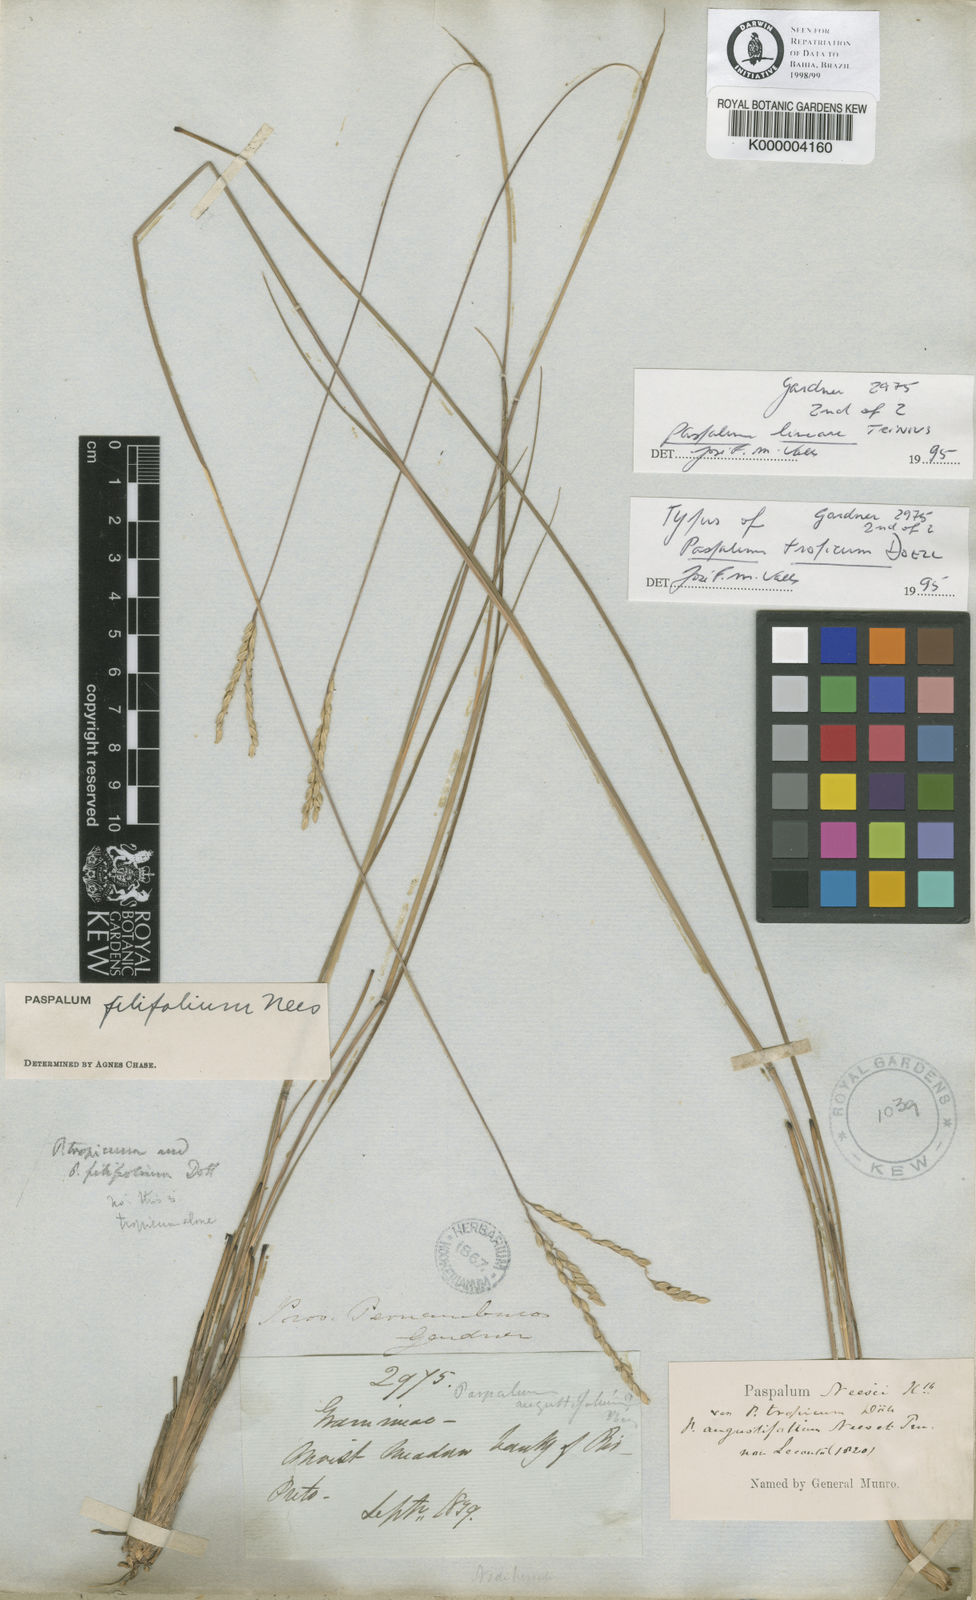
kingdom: Plantae
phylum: Tracheophyta
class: Liliopsida
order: Poales
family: Poaceae
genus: Paspalum
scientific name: Paspalum lineare
